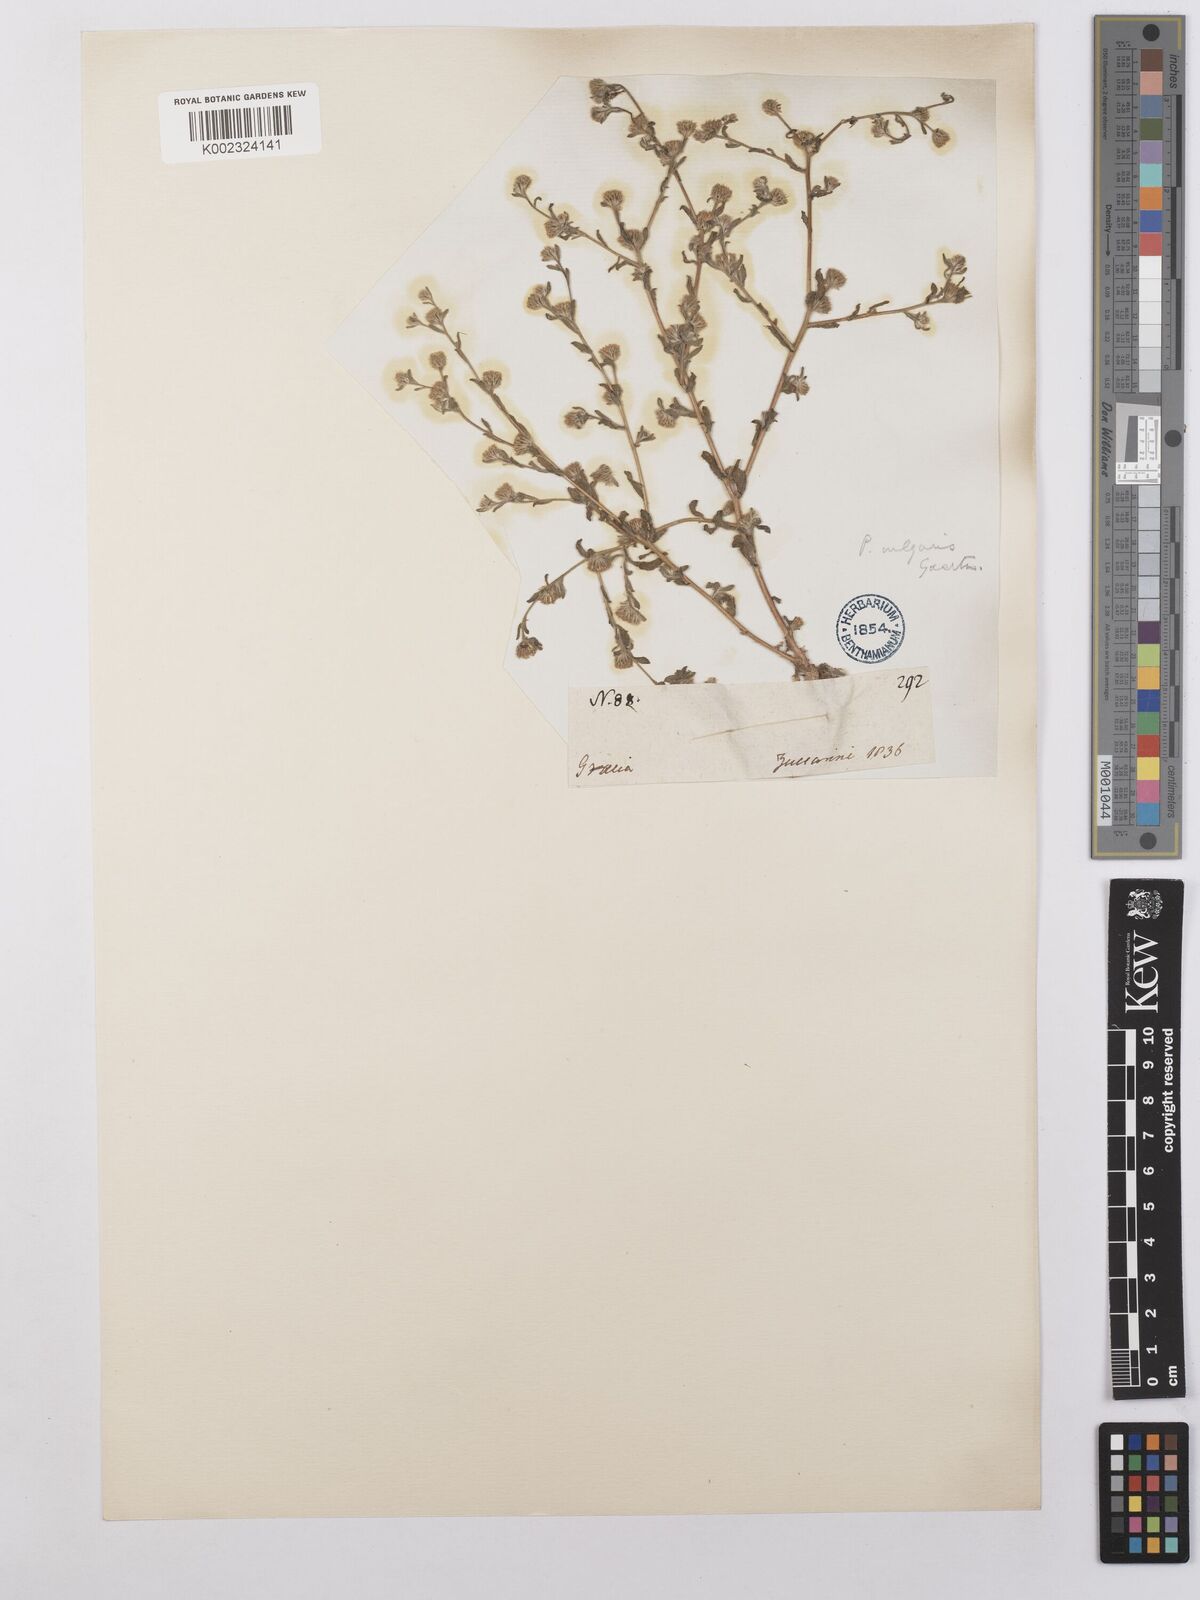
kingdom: Plantae
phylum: Tracheophyta
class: Magnoliopsida
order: Asterales
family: Asteraceae
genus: Pulicaria
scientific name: Pulicaria vulgaris
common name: Small fleabane
